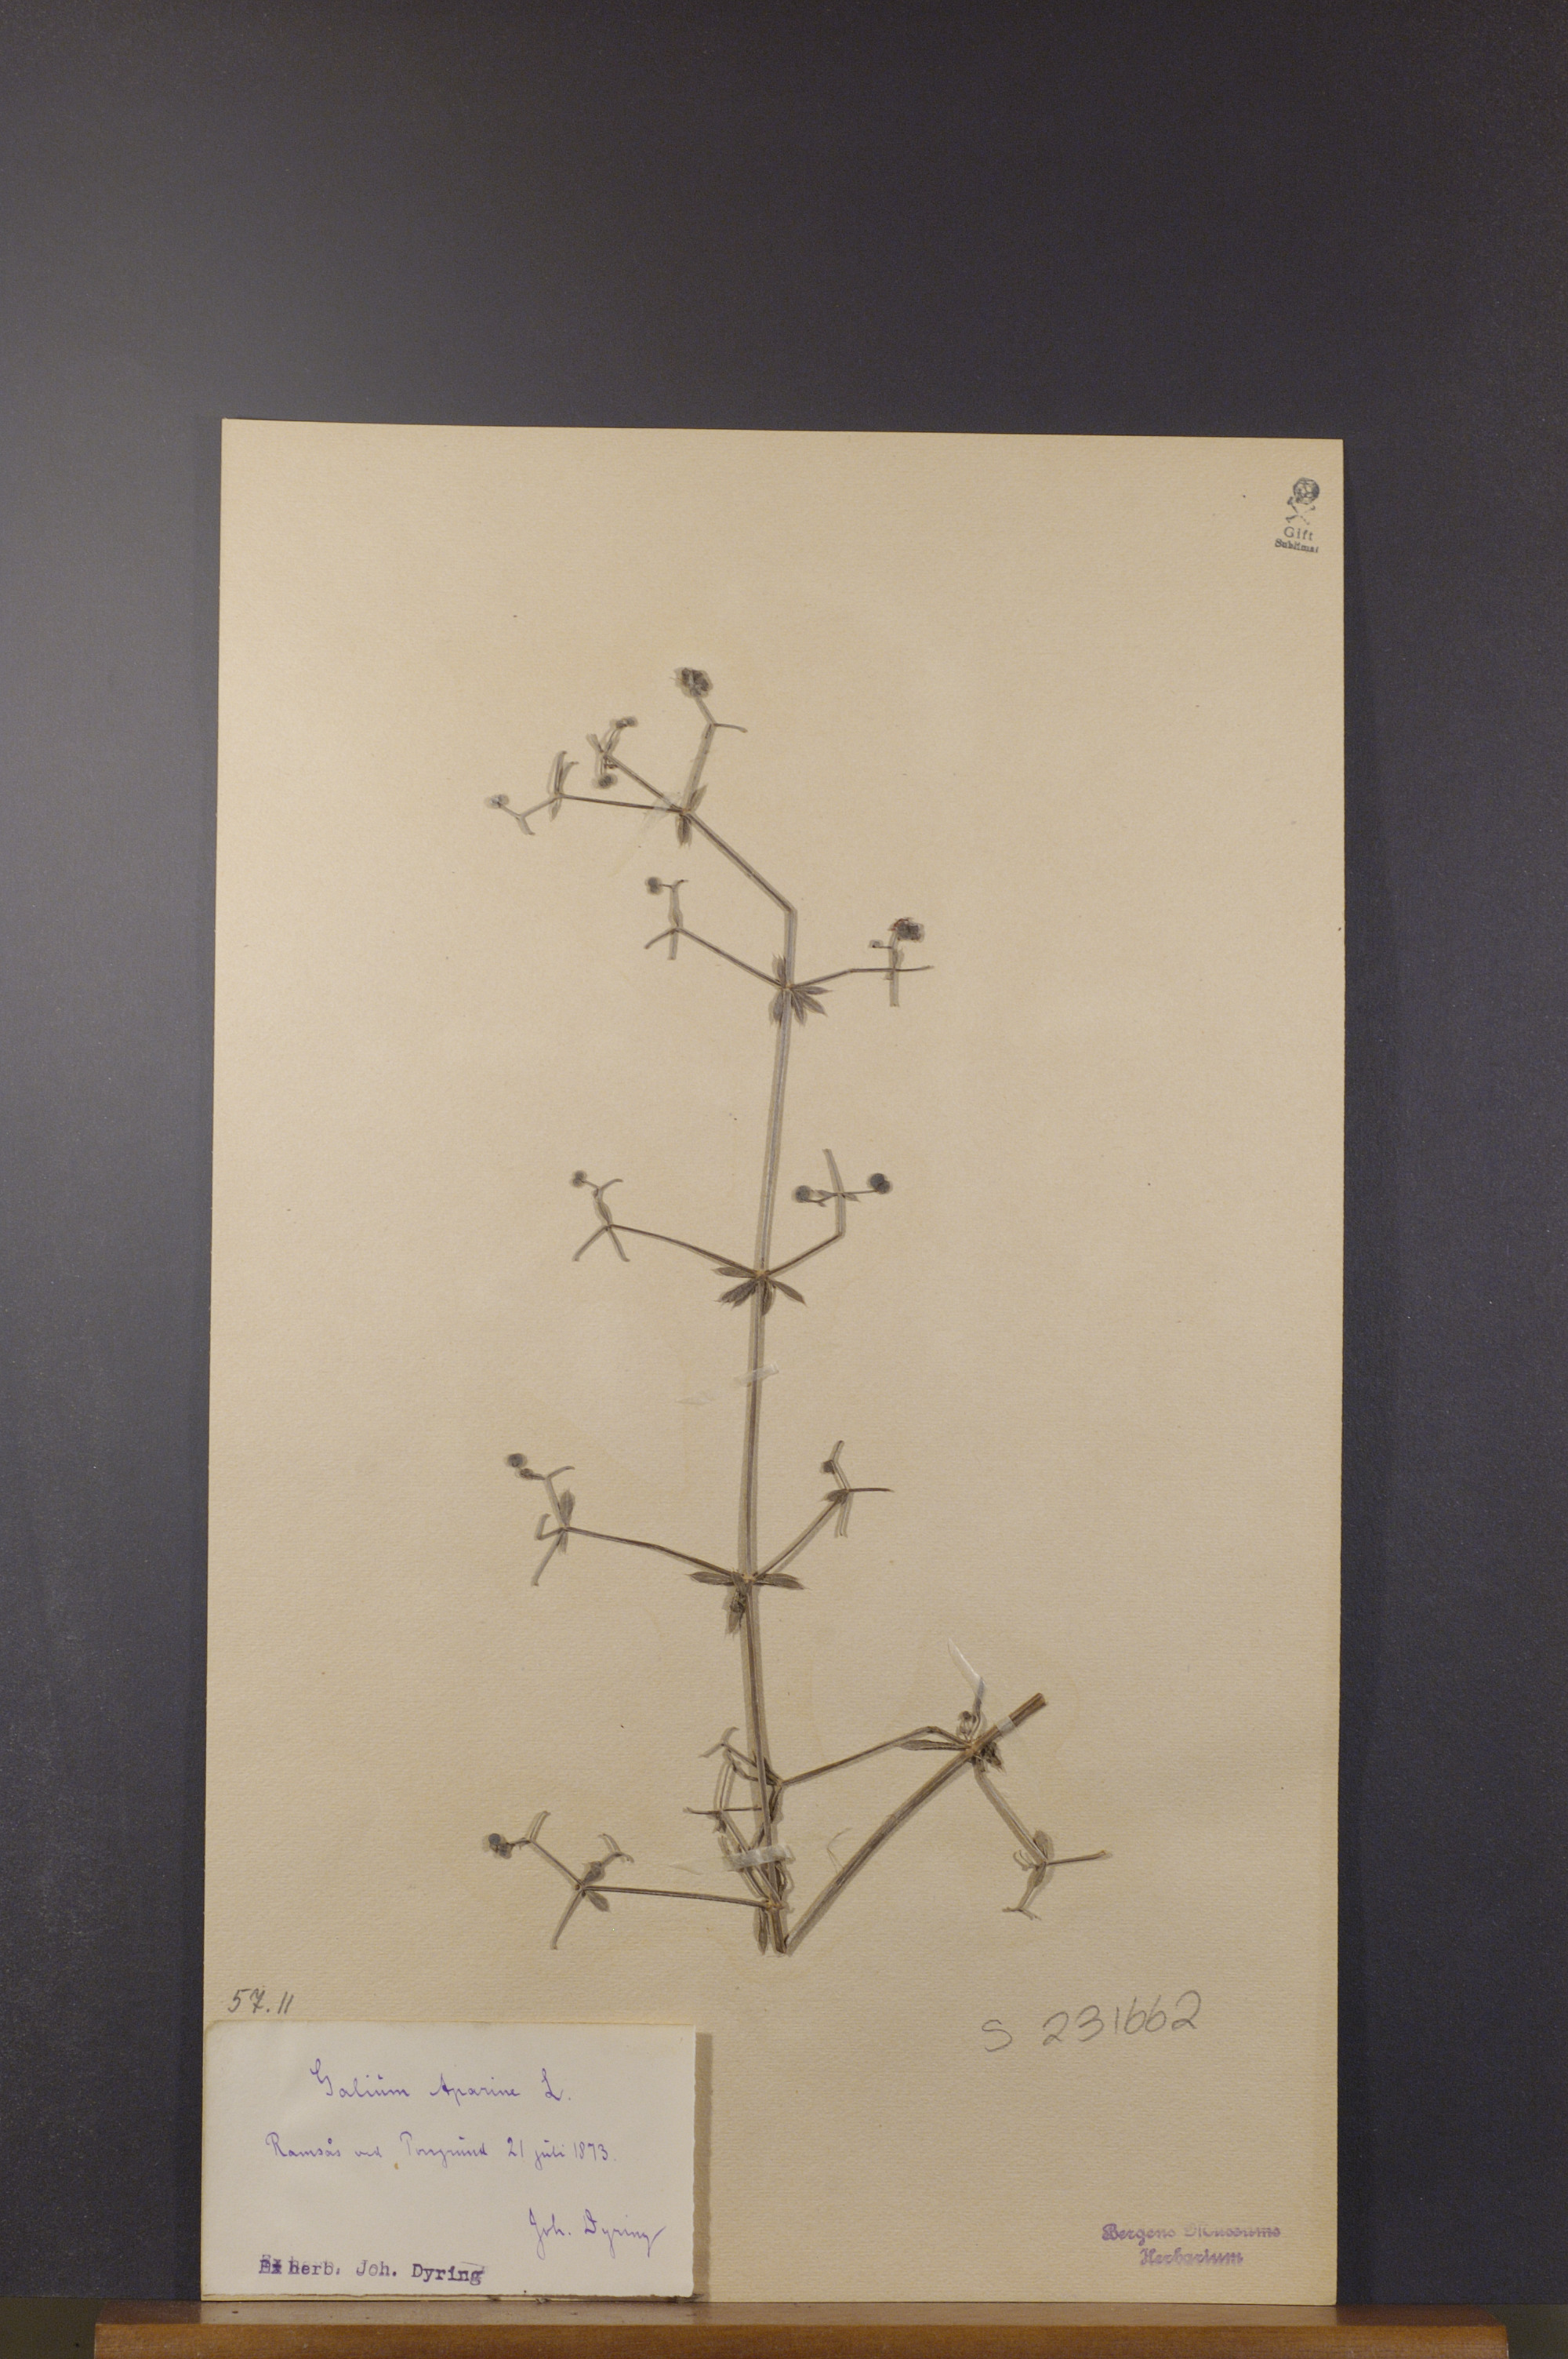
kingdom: Plantae
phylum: Tracheophyta
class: Magnoliopsida
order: Gentianales
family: Rubiaceae
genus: Galium
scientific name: Galium aparine
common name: Cleavers
